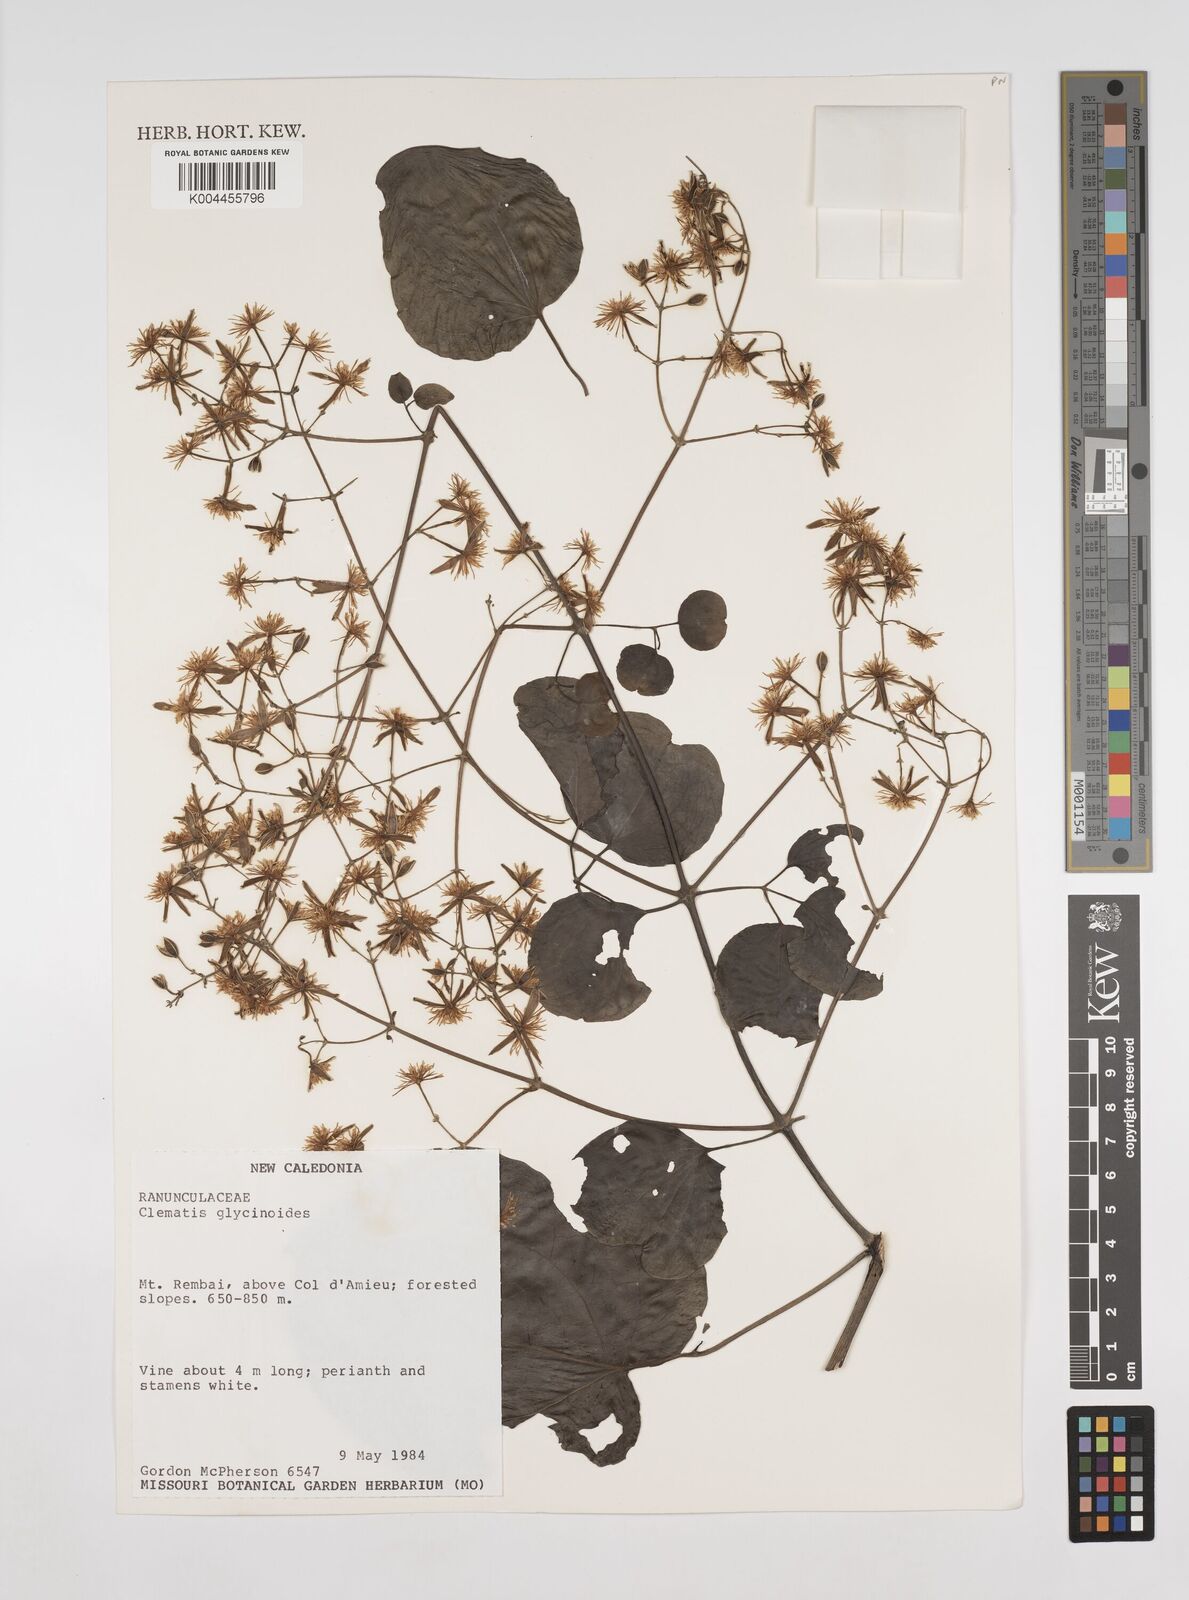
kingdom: Plantae
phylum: Tracheophyta
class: Magnoliopsida
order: Ranunculales
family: Ranunculaceae
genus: Clematis
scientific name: Clematis glycinoides
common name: Forest clematis
